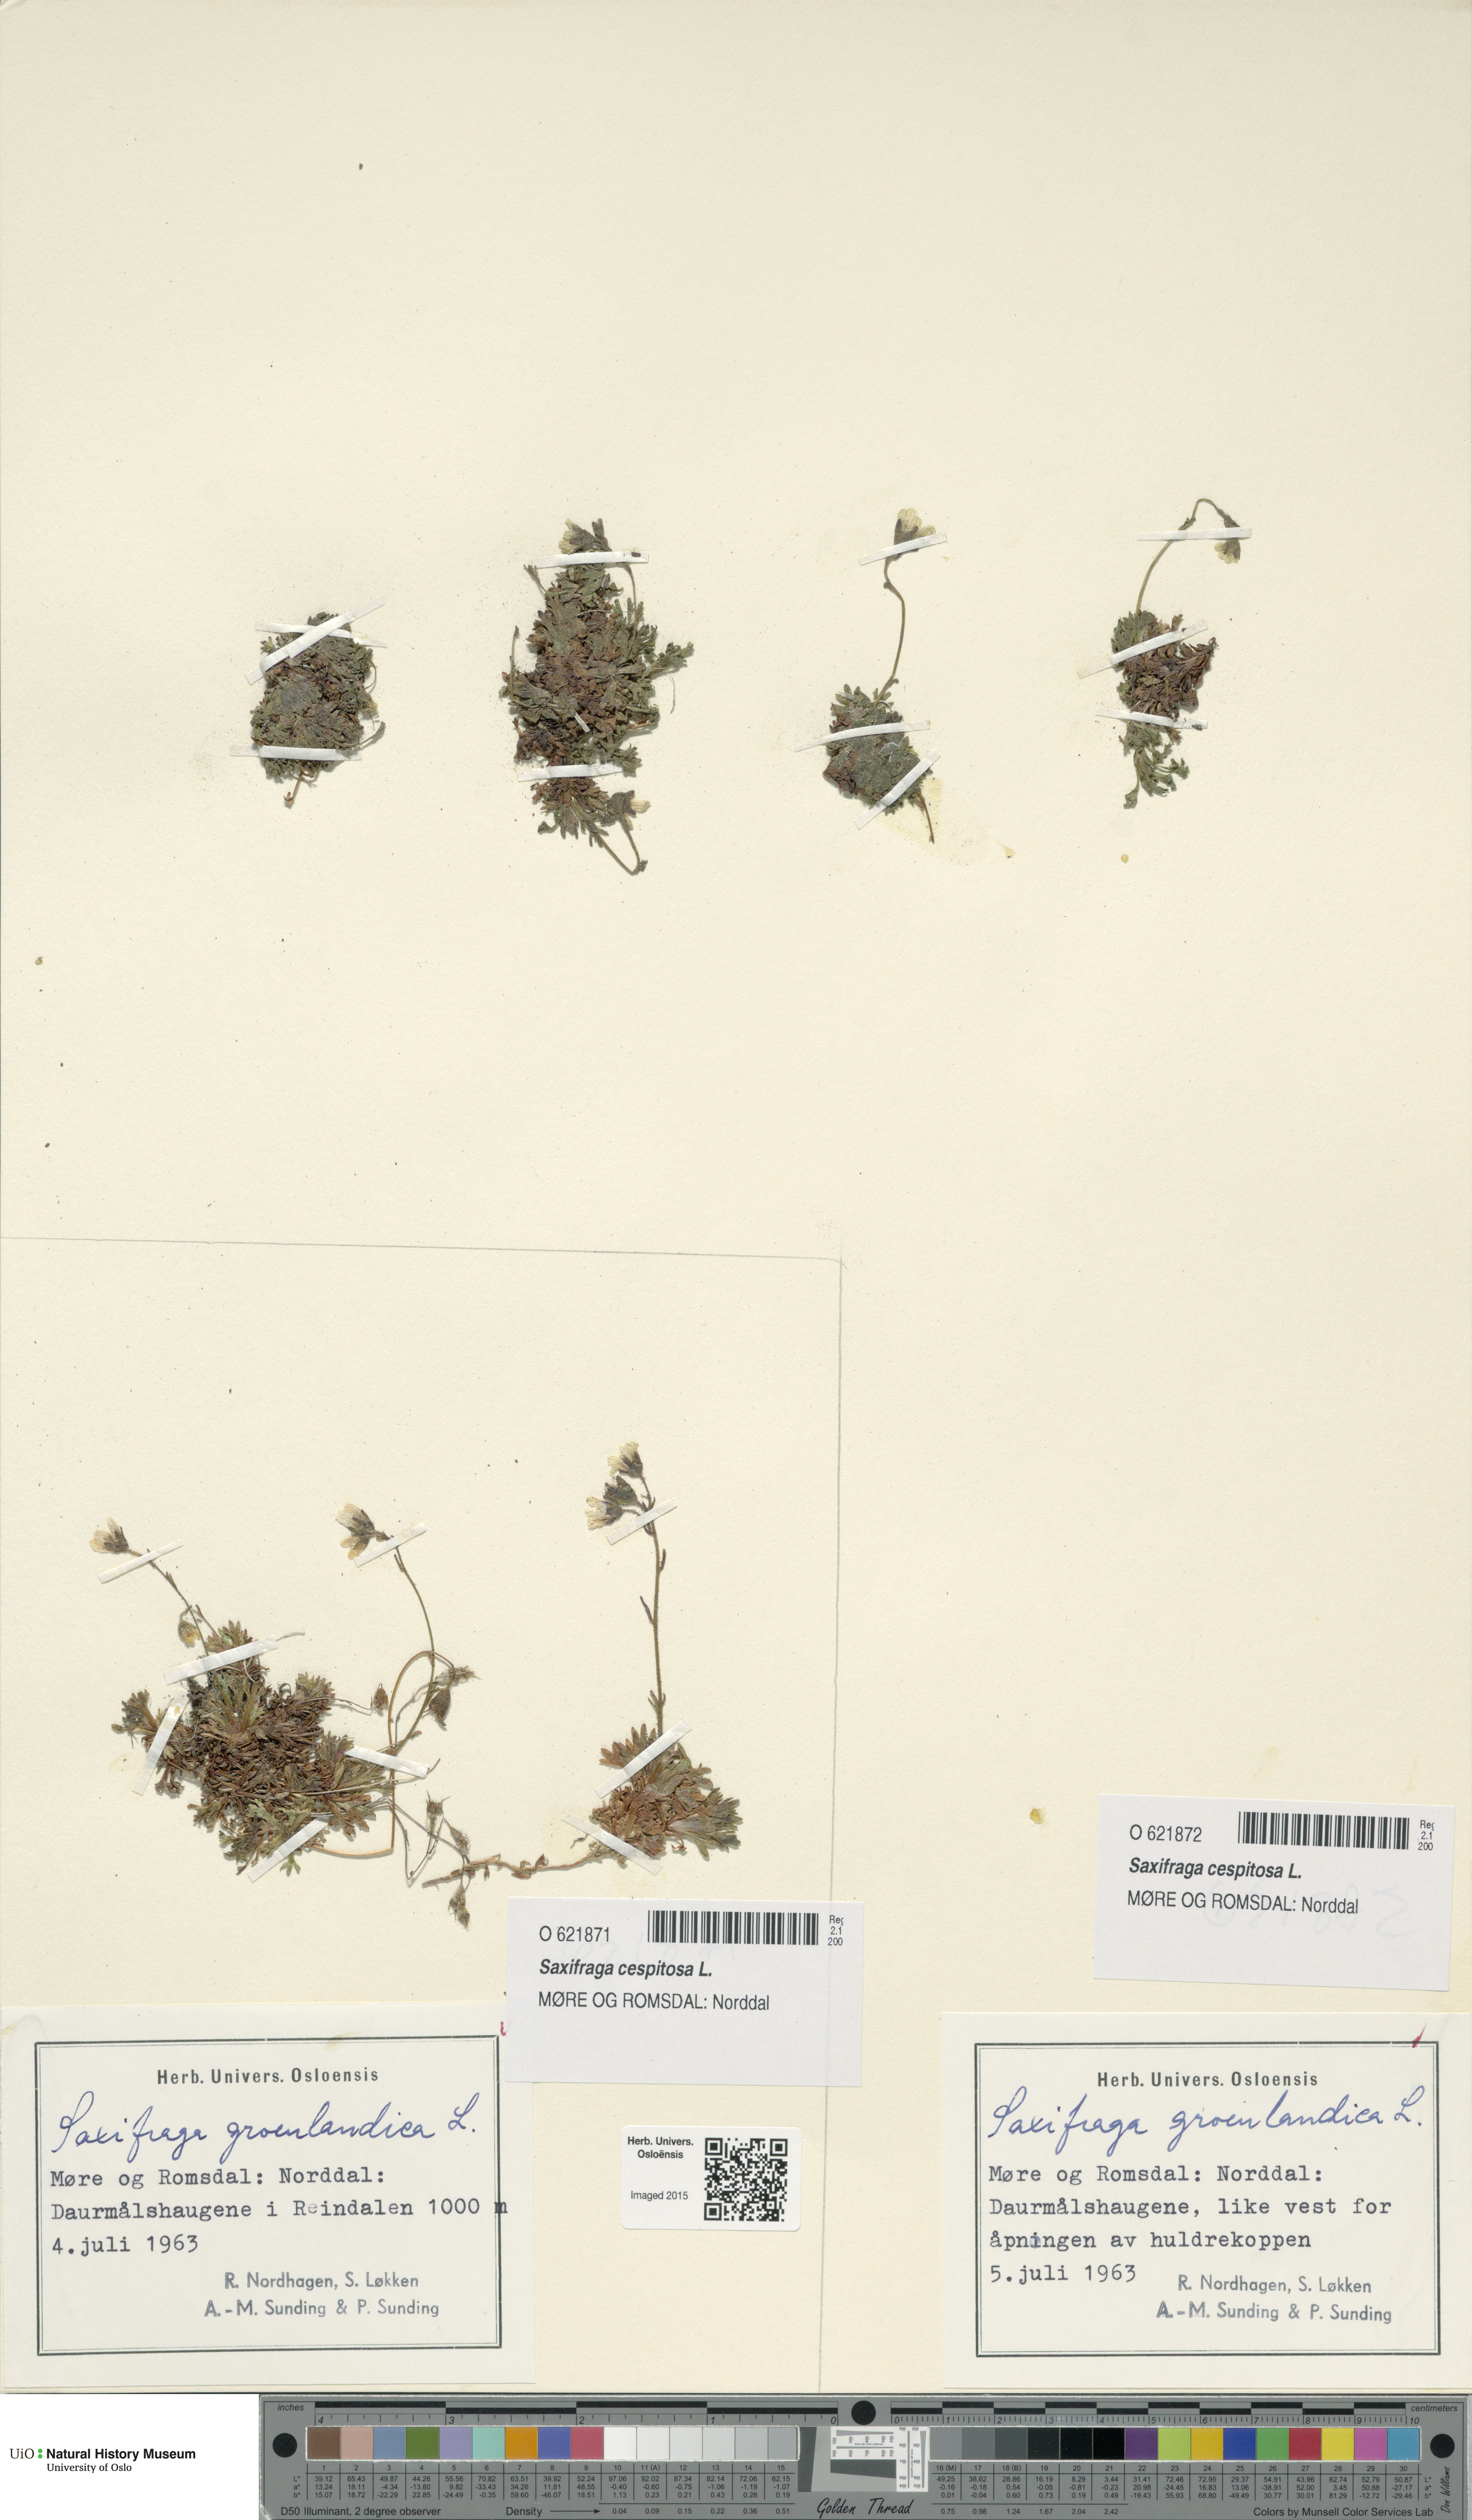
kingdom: Plantae
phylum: Tracheophyta
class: Magnoliopsida
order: Saxifragales
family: Saxifragaceae
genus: Saxifraga
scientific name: Saxifraga cespitosa
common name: Tufted saxifrage
